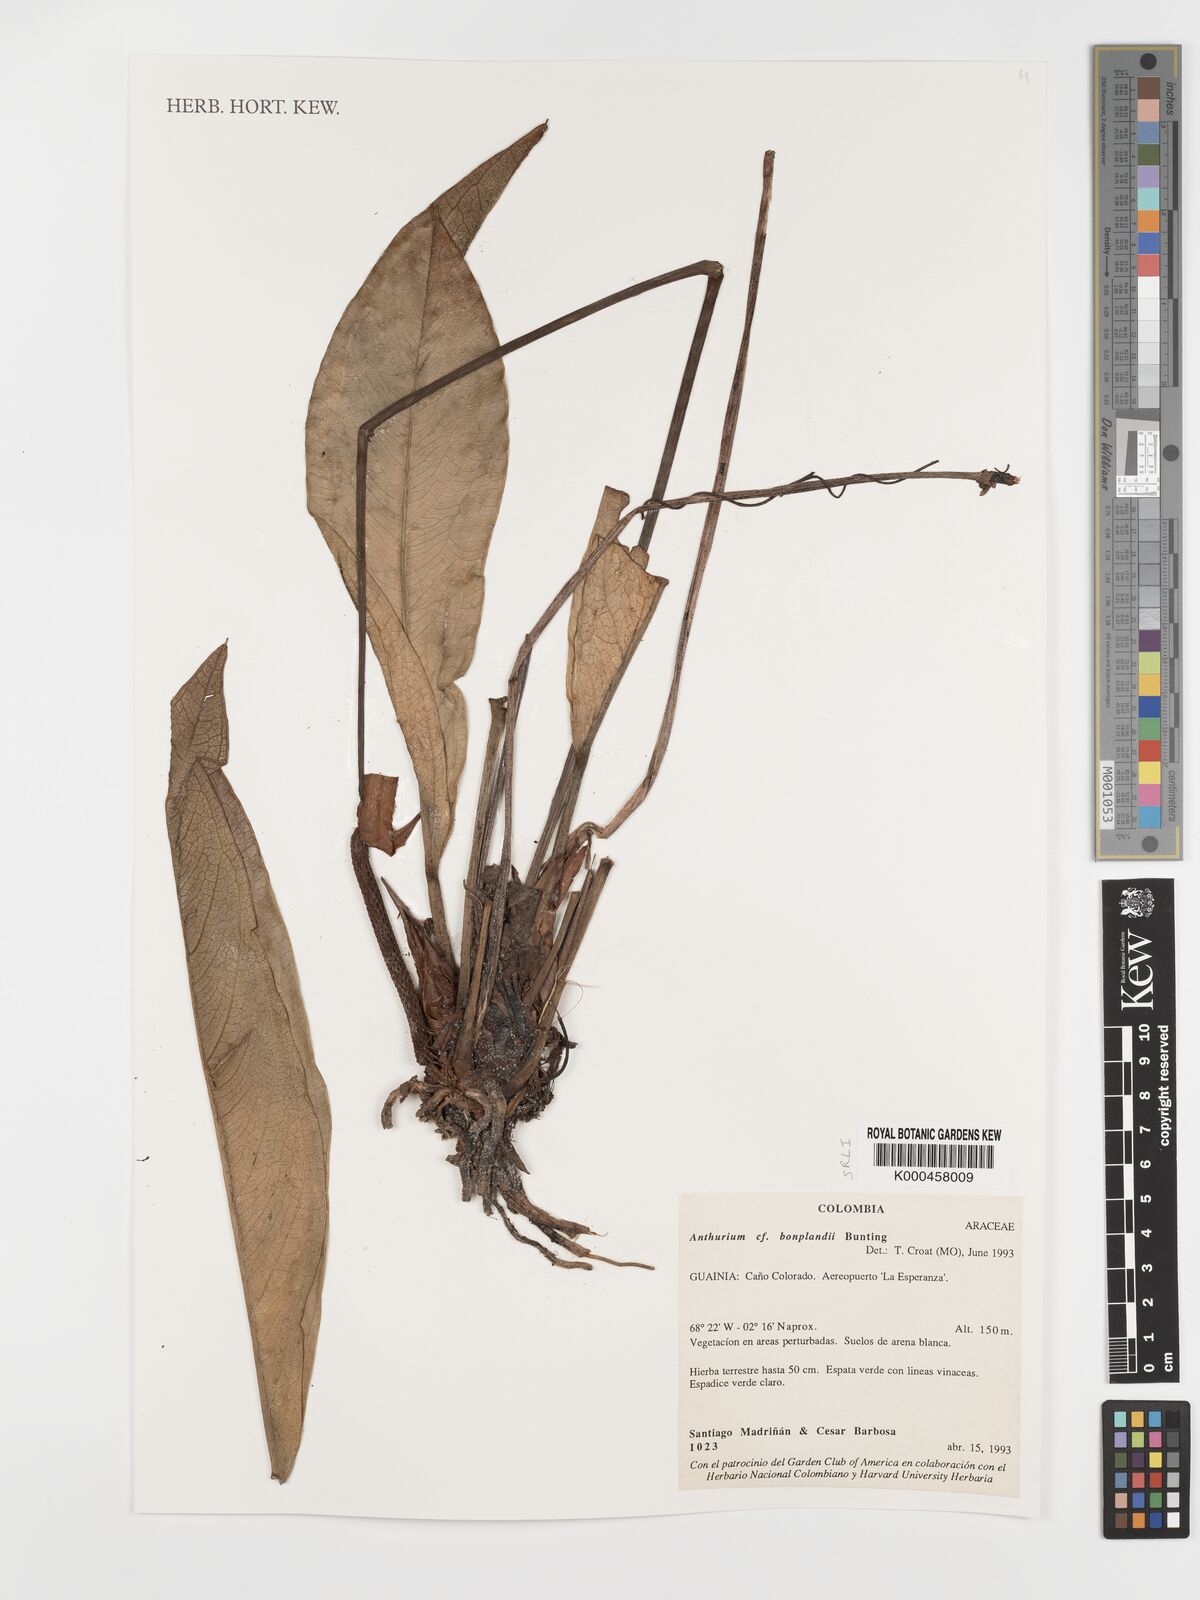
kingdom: Plantae
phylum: Tracheophyta
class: Liliopsida
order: Alismatales
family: Araceae
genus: Anthurium
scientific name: Anthurium bonplandii
